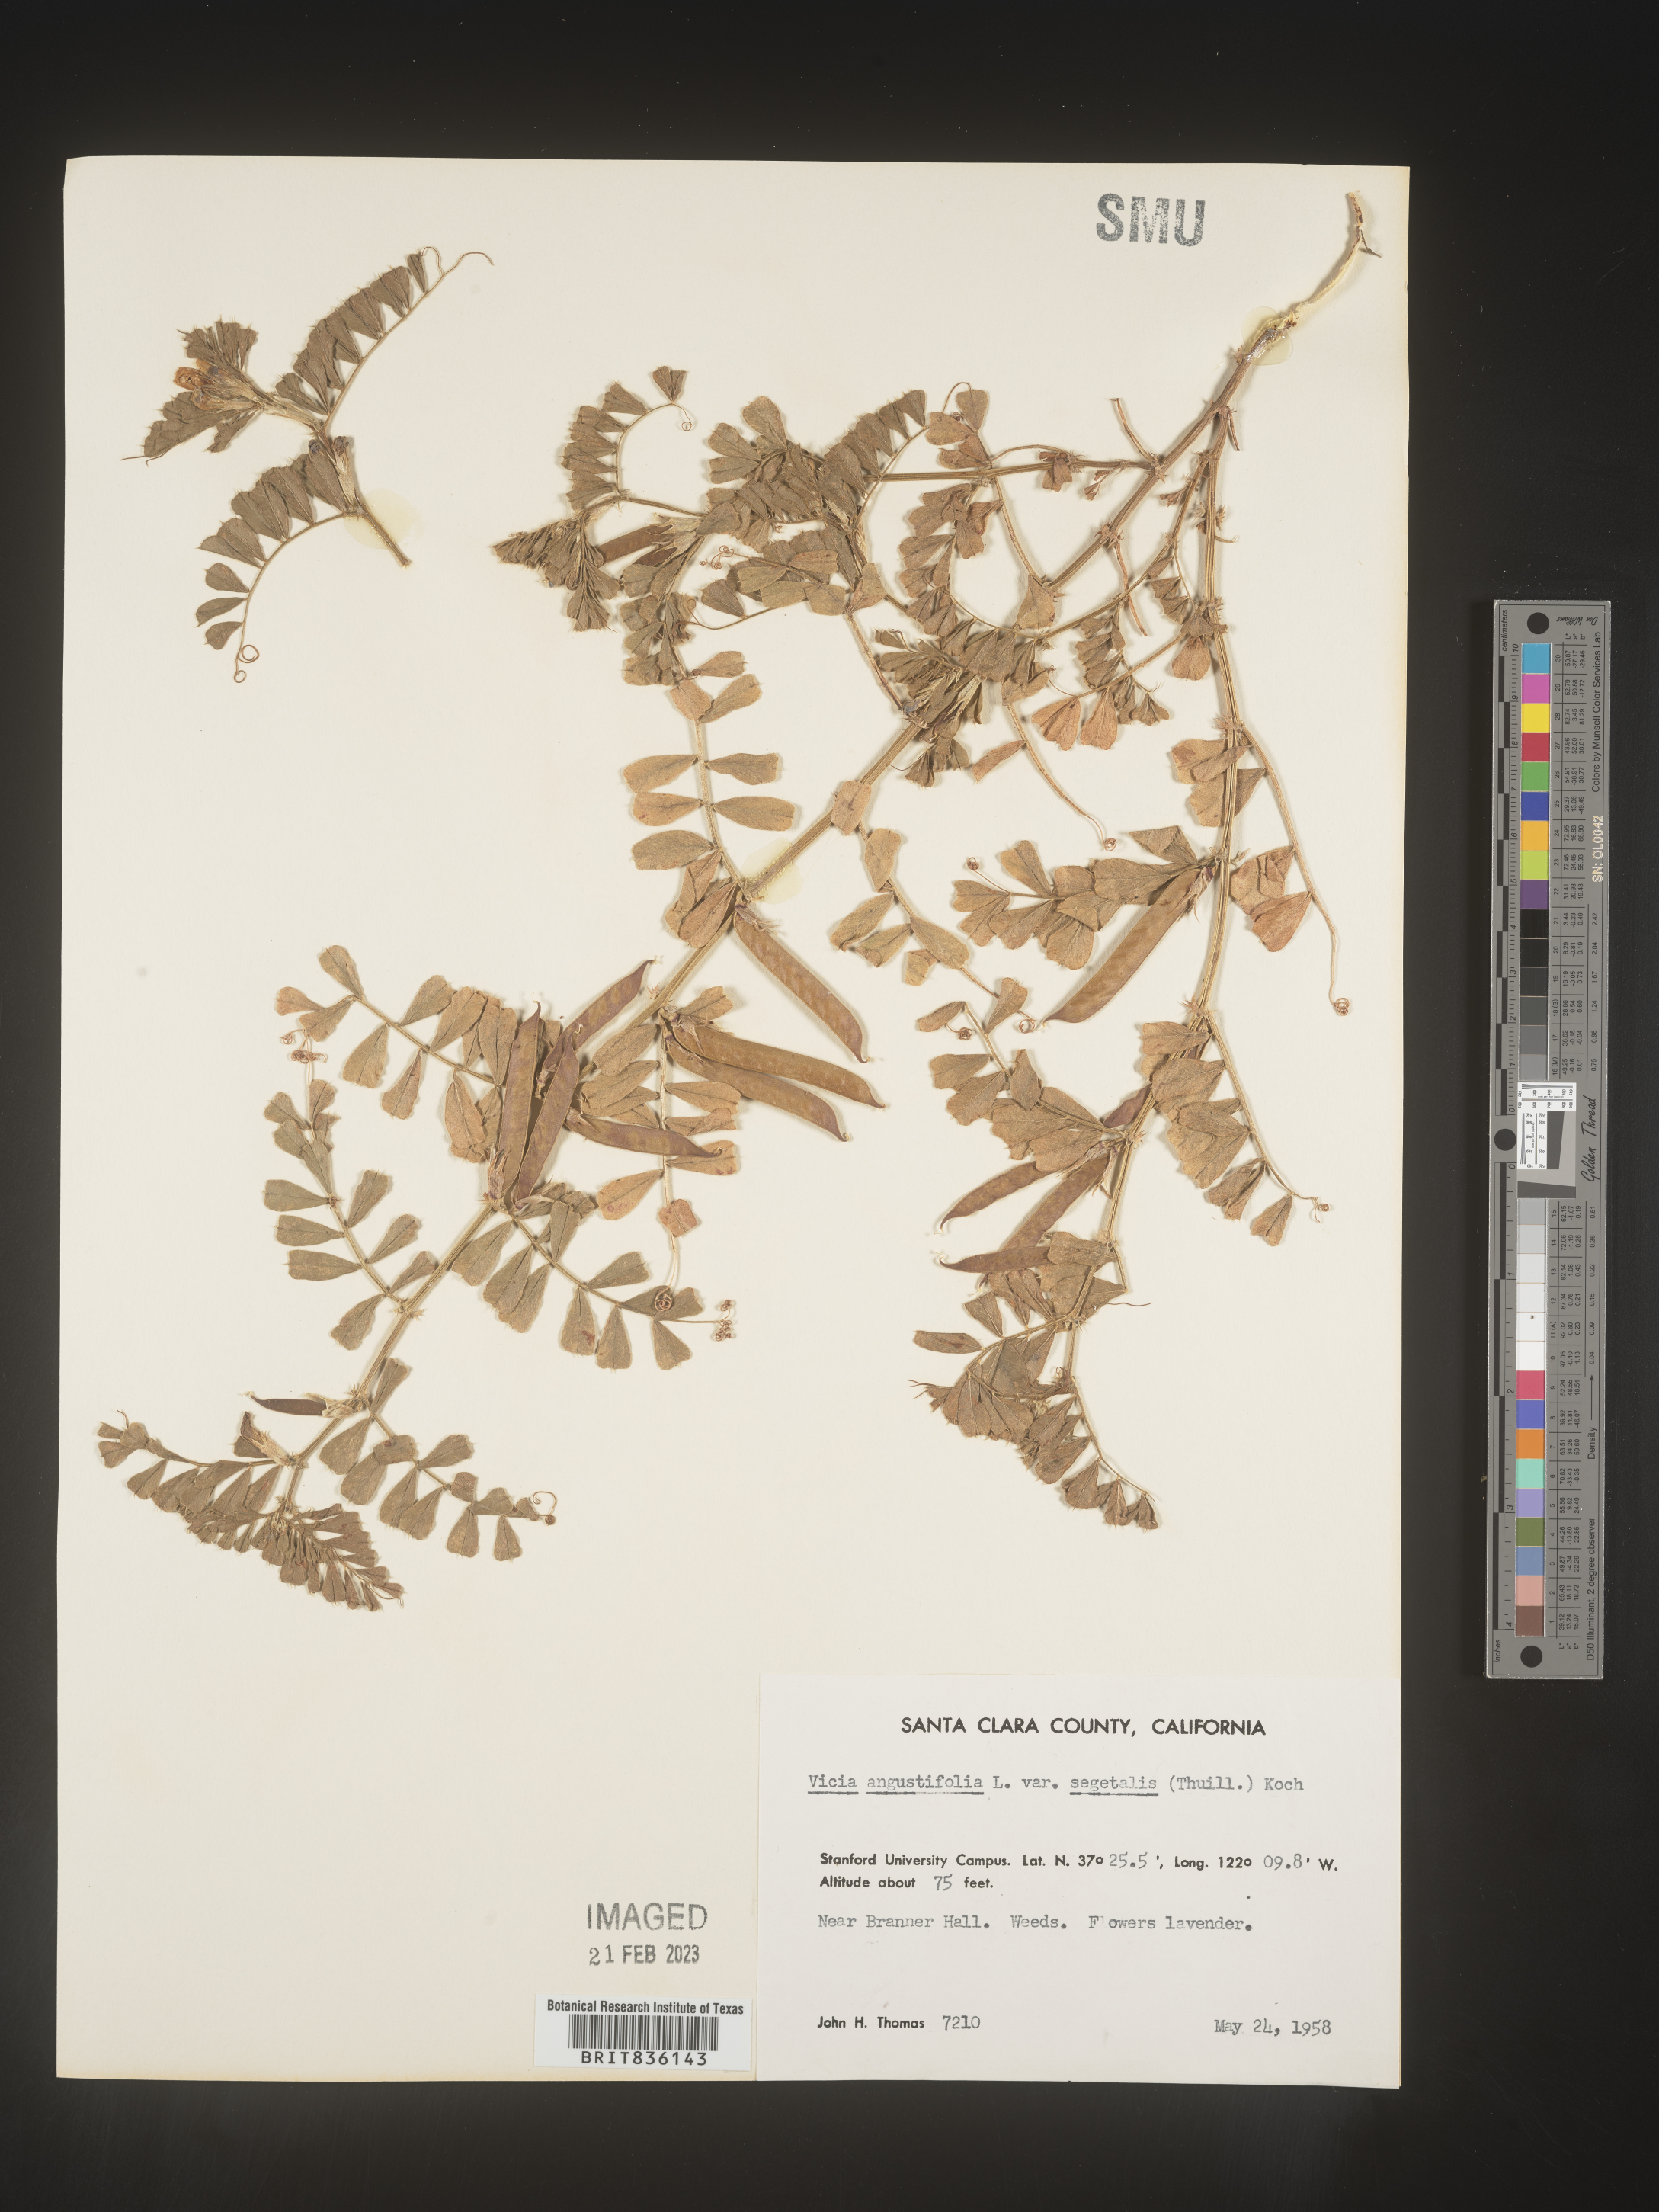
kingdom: Plantae
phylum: Tracheophyta
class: Magnoliopsida
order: Fabales
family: Fabaceae
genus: Vicia
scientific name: Vicia sativa
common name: Garden vetch
